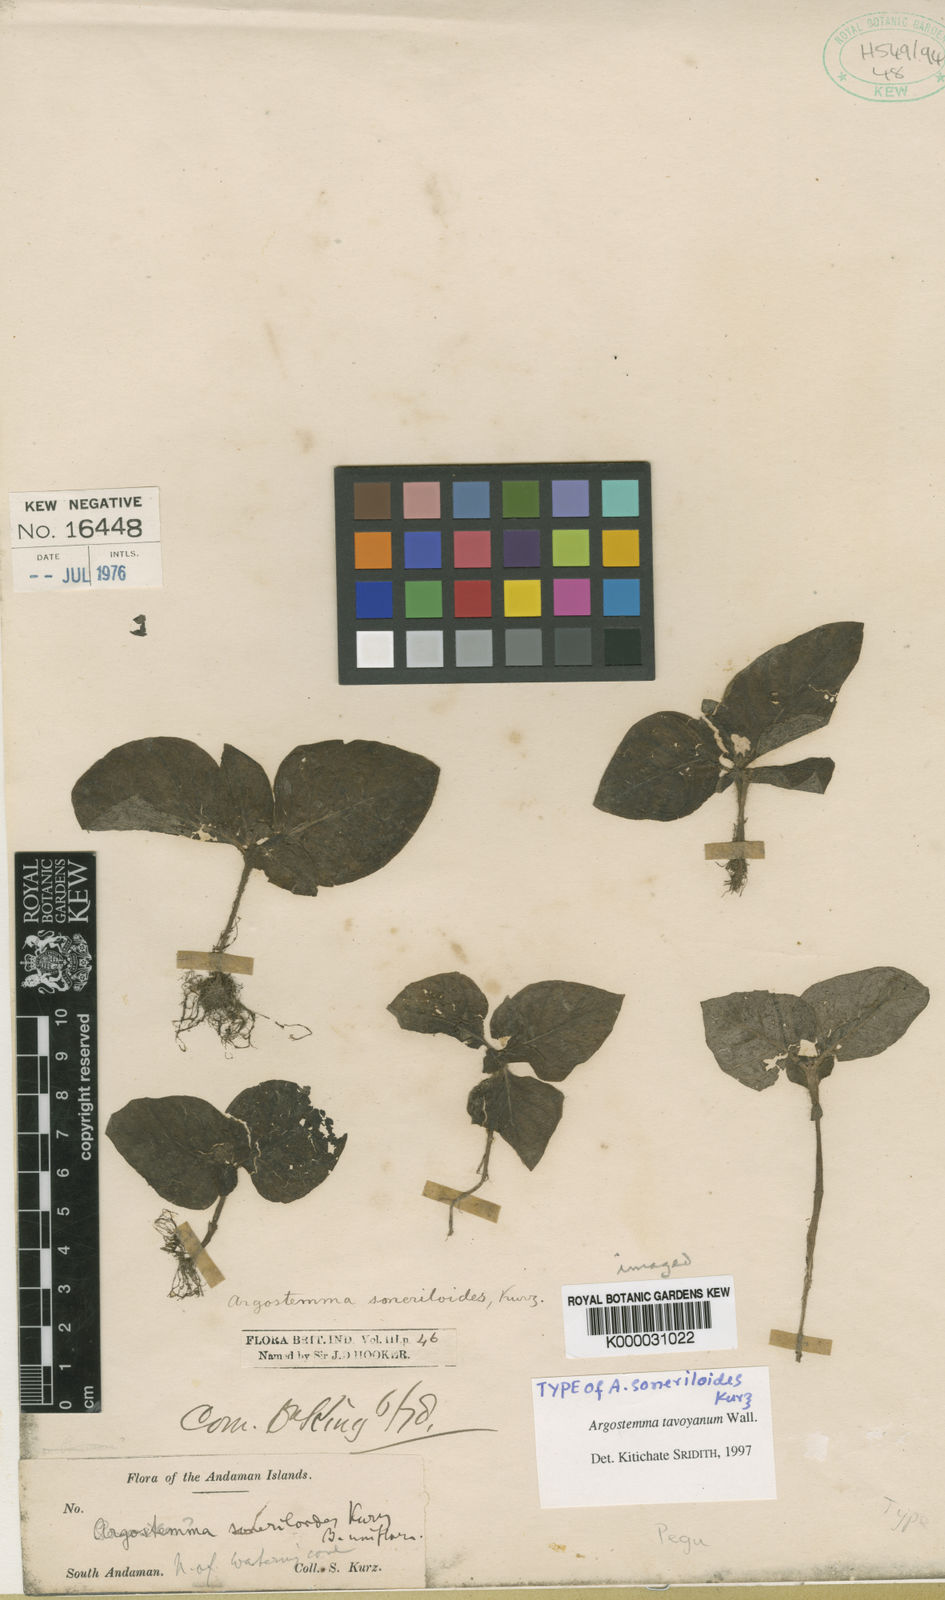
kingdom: Plantae
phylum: Tracheophyta
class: Magnoliopsida
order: Gentianales
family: Rubiaceae
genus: Argostemma
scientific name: Argostemma tavoyanum
